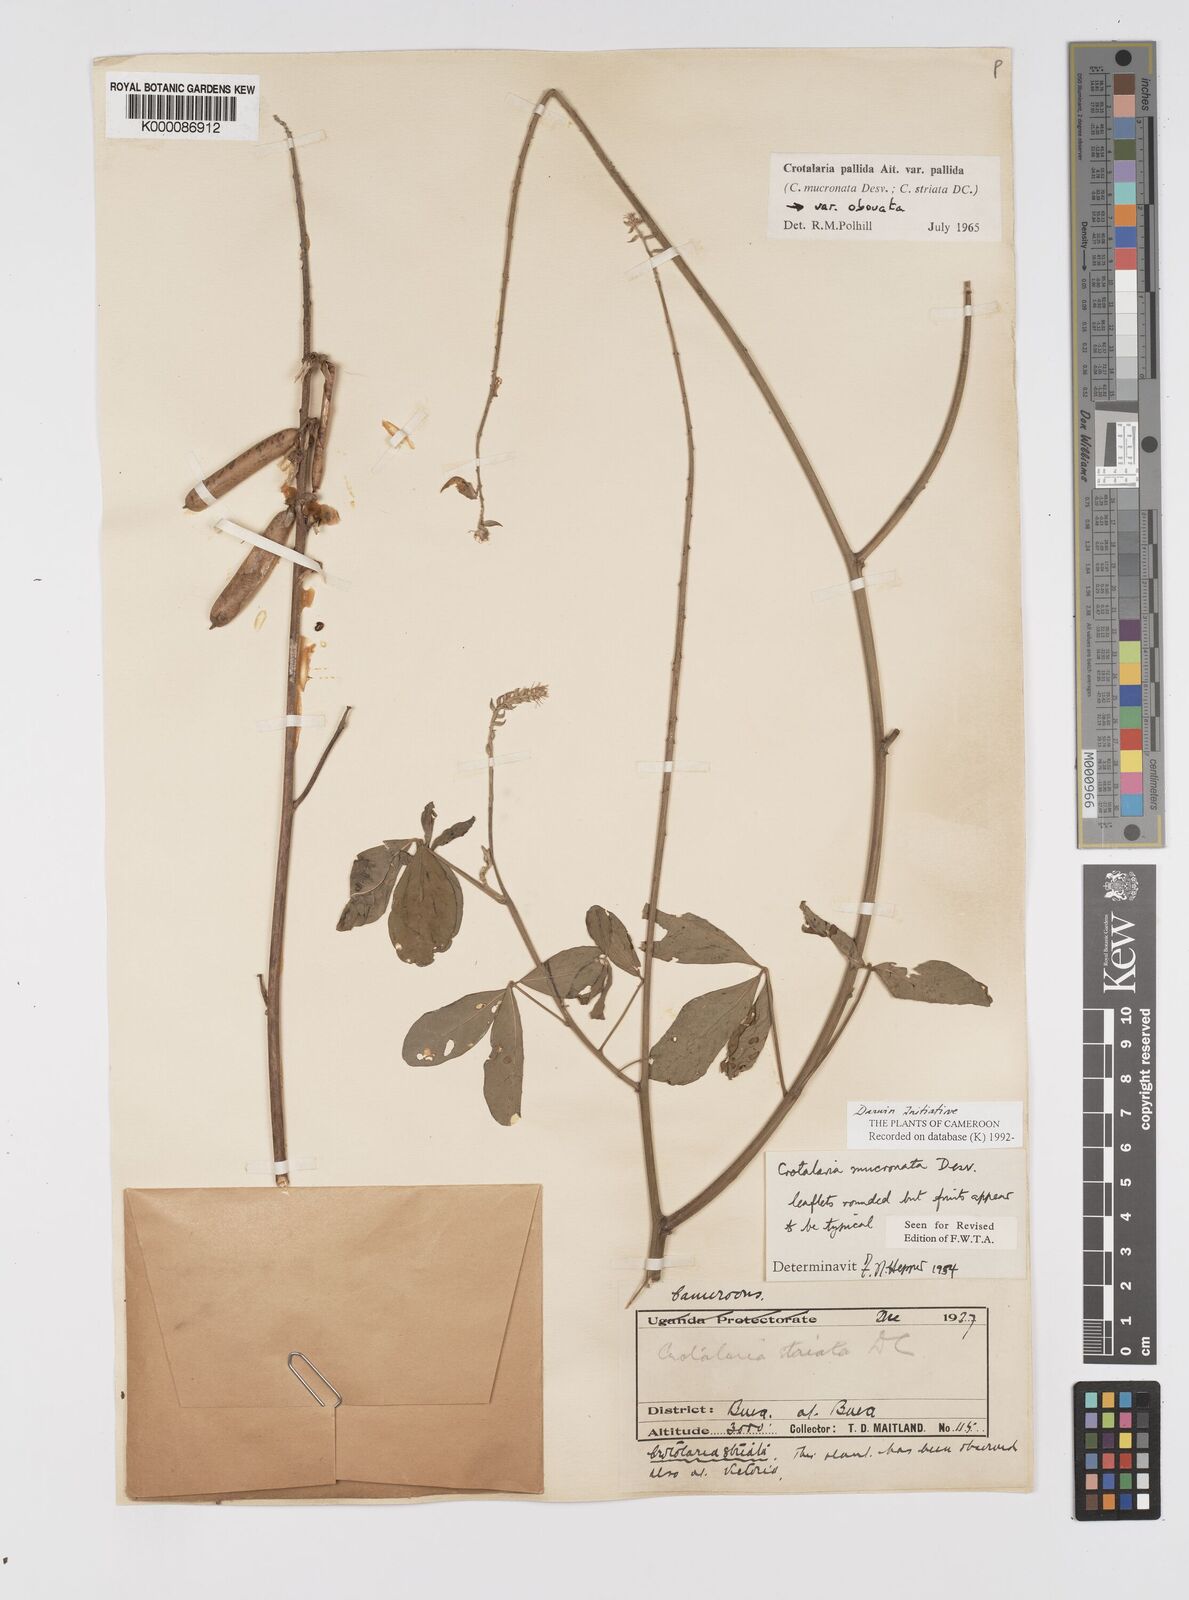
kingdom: Plantae
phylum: Tracheophyta
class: Magnoliopsida
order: Fabales
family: Fabaceae
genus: Crotalaria
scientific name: Crotalaria pallida
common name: Smooth rattlebox
